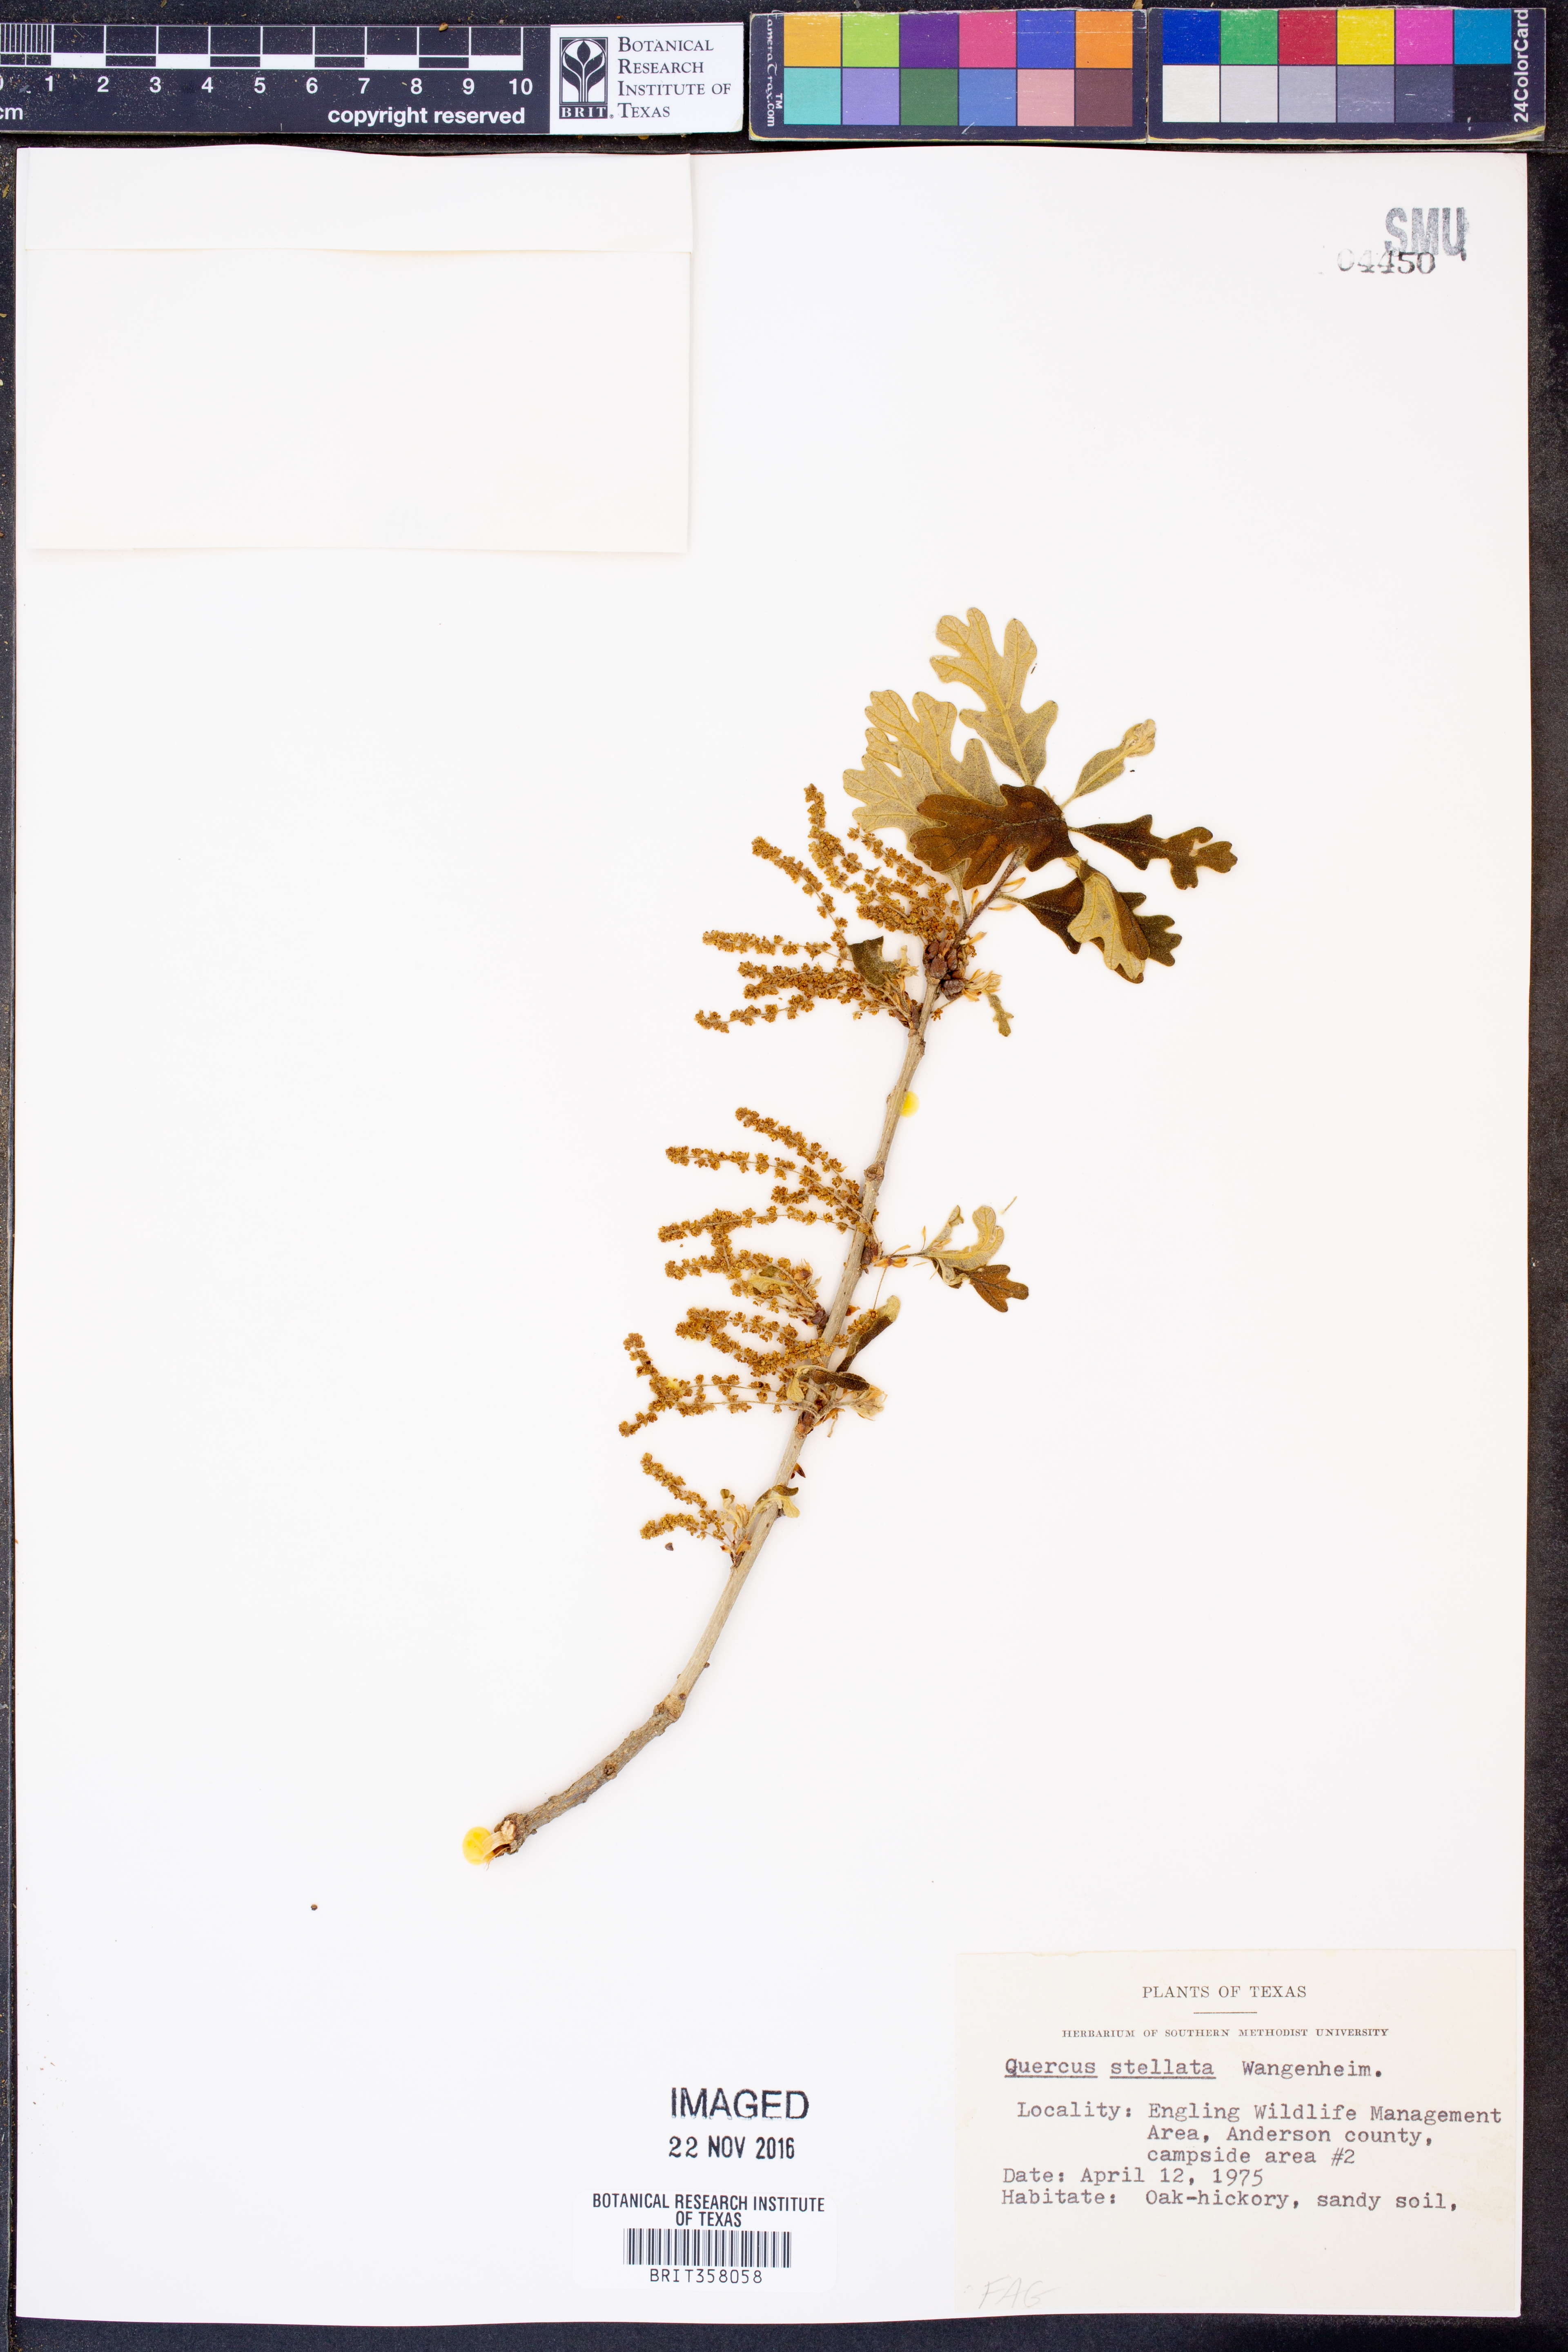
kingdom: Plantae
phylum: Tracheophyta
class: Magnoliopsida
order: Fagales
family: Fagaceae
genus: Quercus
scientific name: Quercus stellata
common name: Post oak
